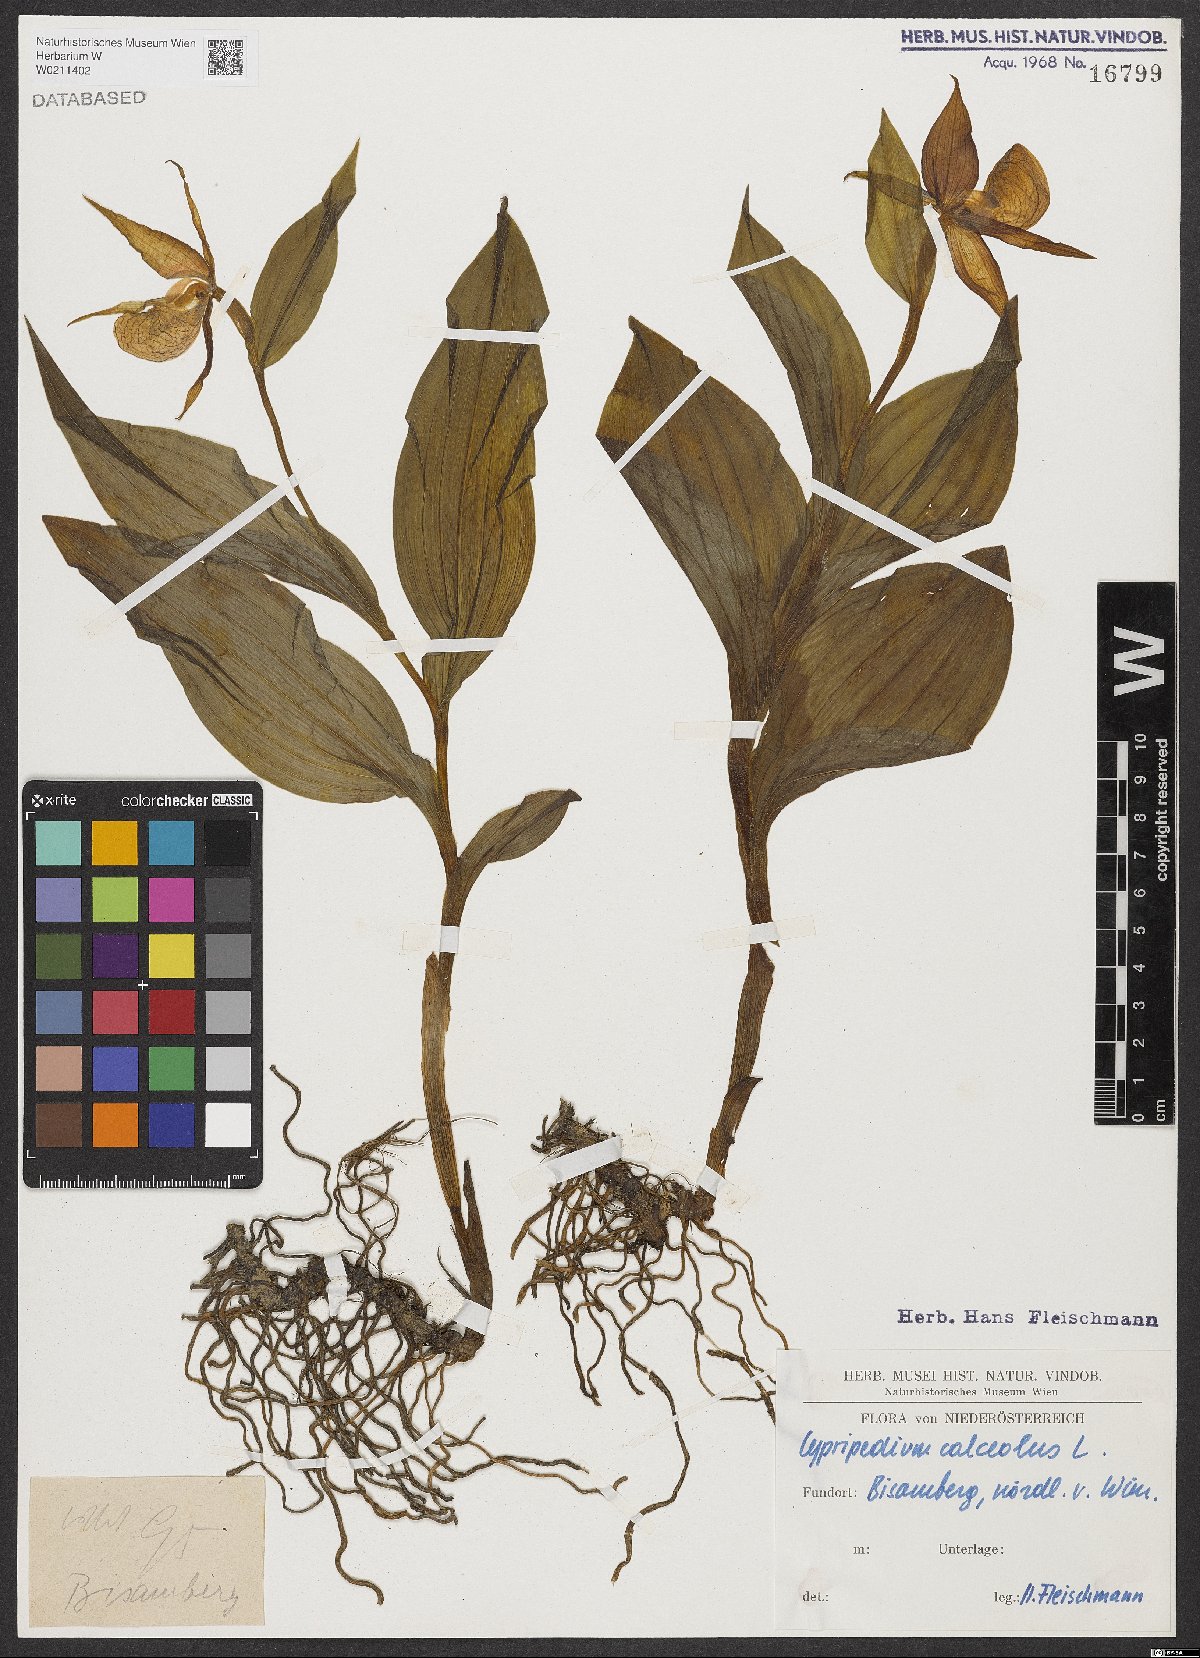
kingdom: Plantae
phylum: Tracheophyta
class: Liliopsida
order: Asparagales
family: Orchidaceae
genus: Cypripedium
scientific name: Cypripedium calceolus
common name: Lady's-slipper
